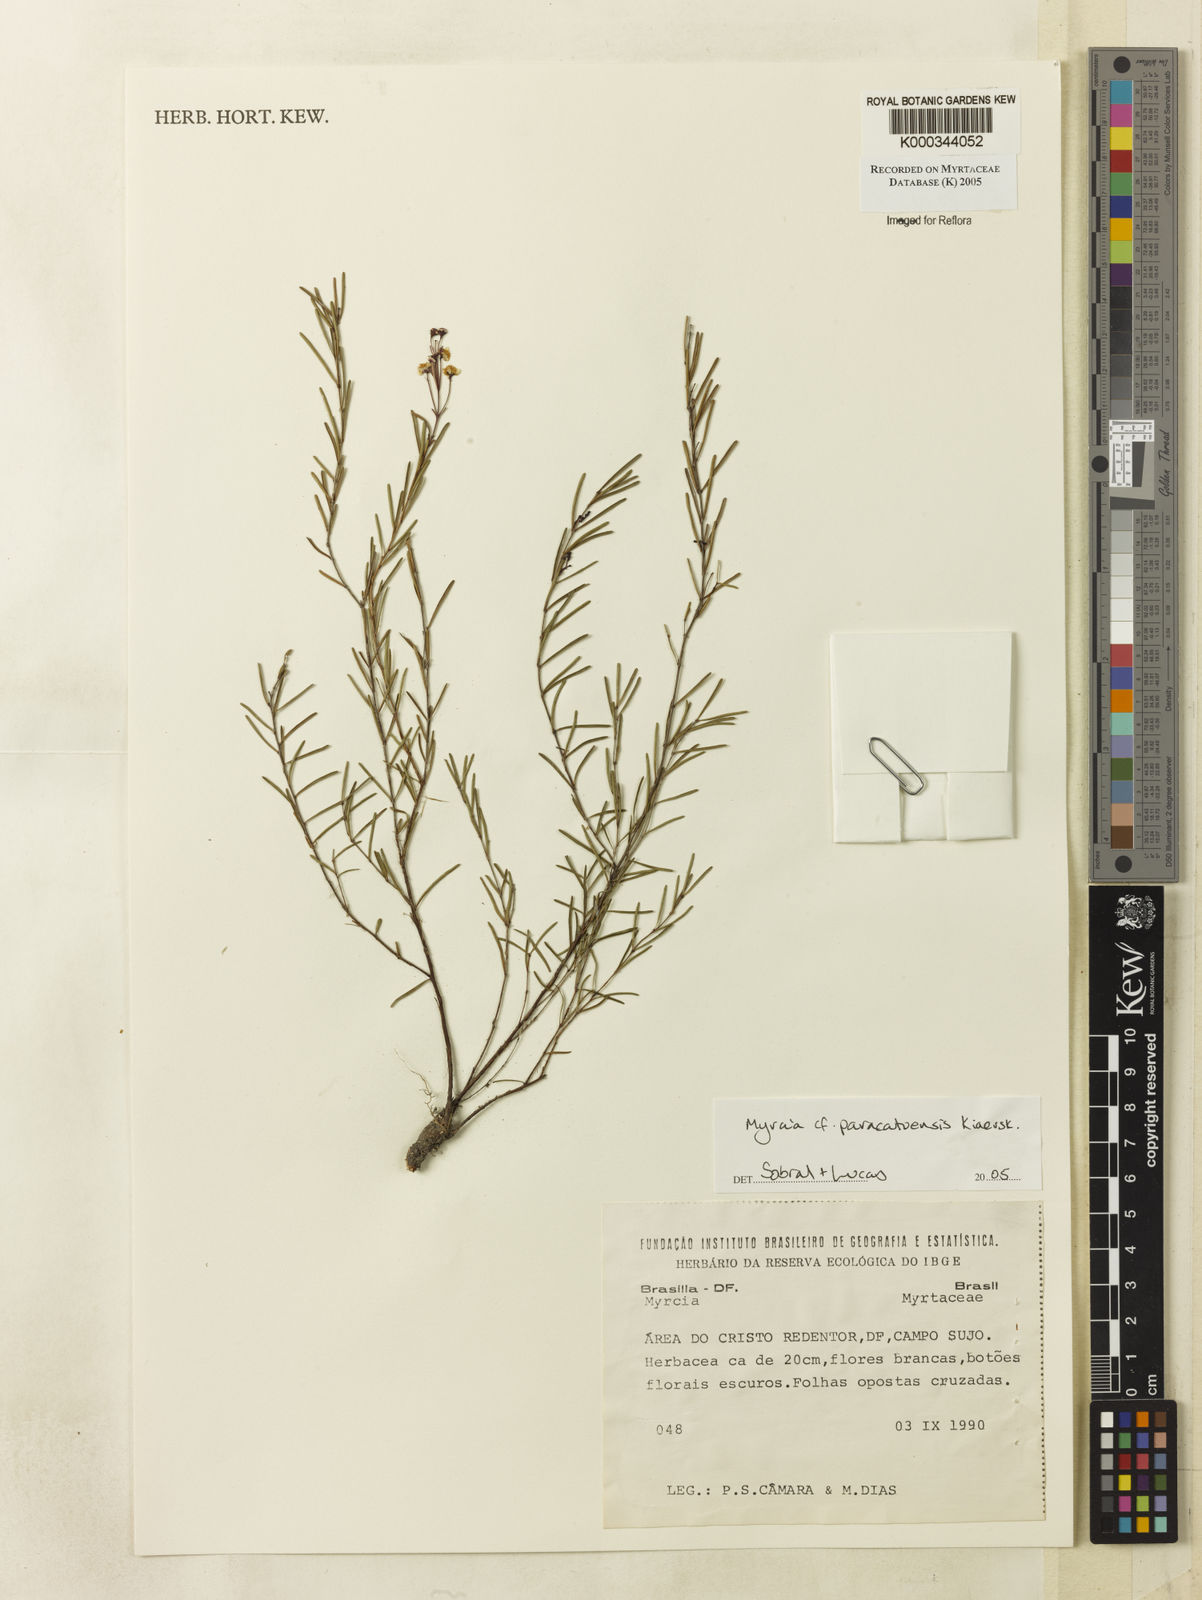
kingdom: Plantae
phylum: Tracheophyta
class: Magnoliopsida
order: Myrtales
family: Myrtaceae
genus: Myrcia
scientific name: Myrcia paracatuensis
